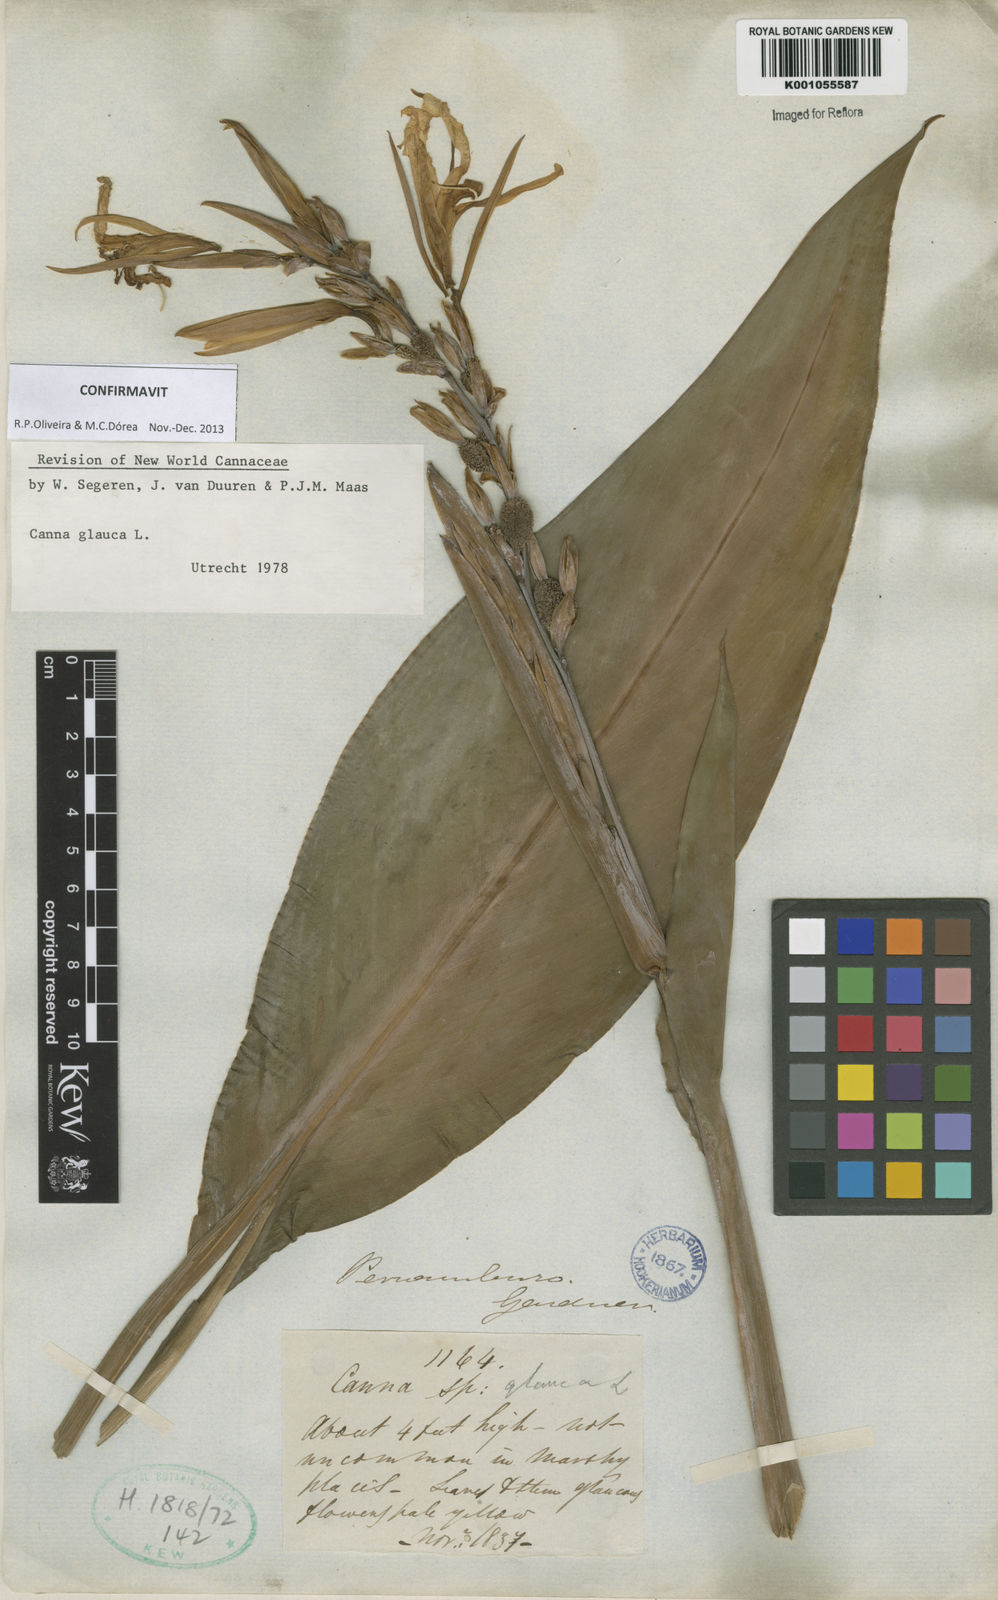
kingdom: Plantae
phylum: Tracheophyta
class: Liliopsida
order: Zingiberales
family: Cannaceae
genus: Canna
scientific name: Canna glauca
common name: Louisiana canna
